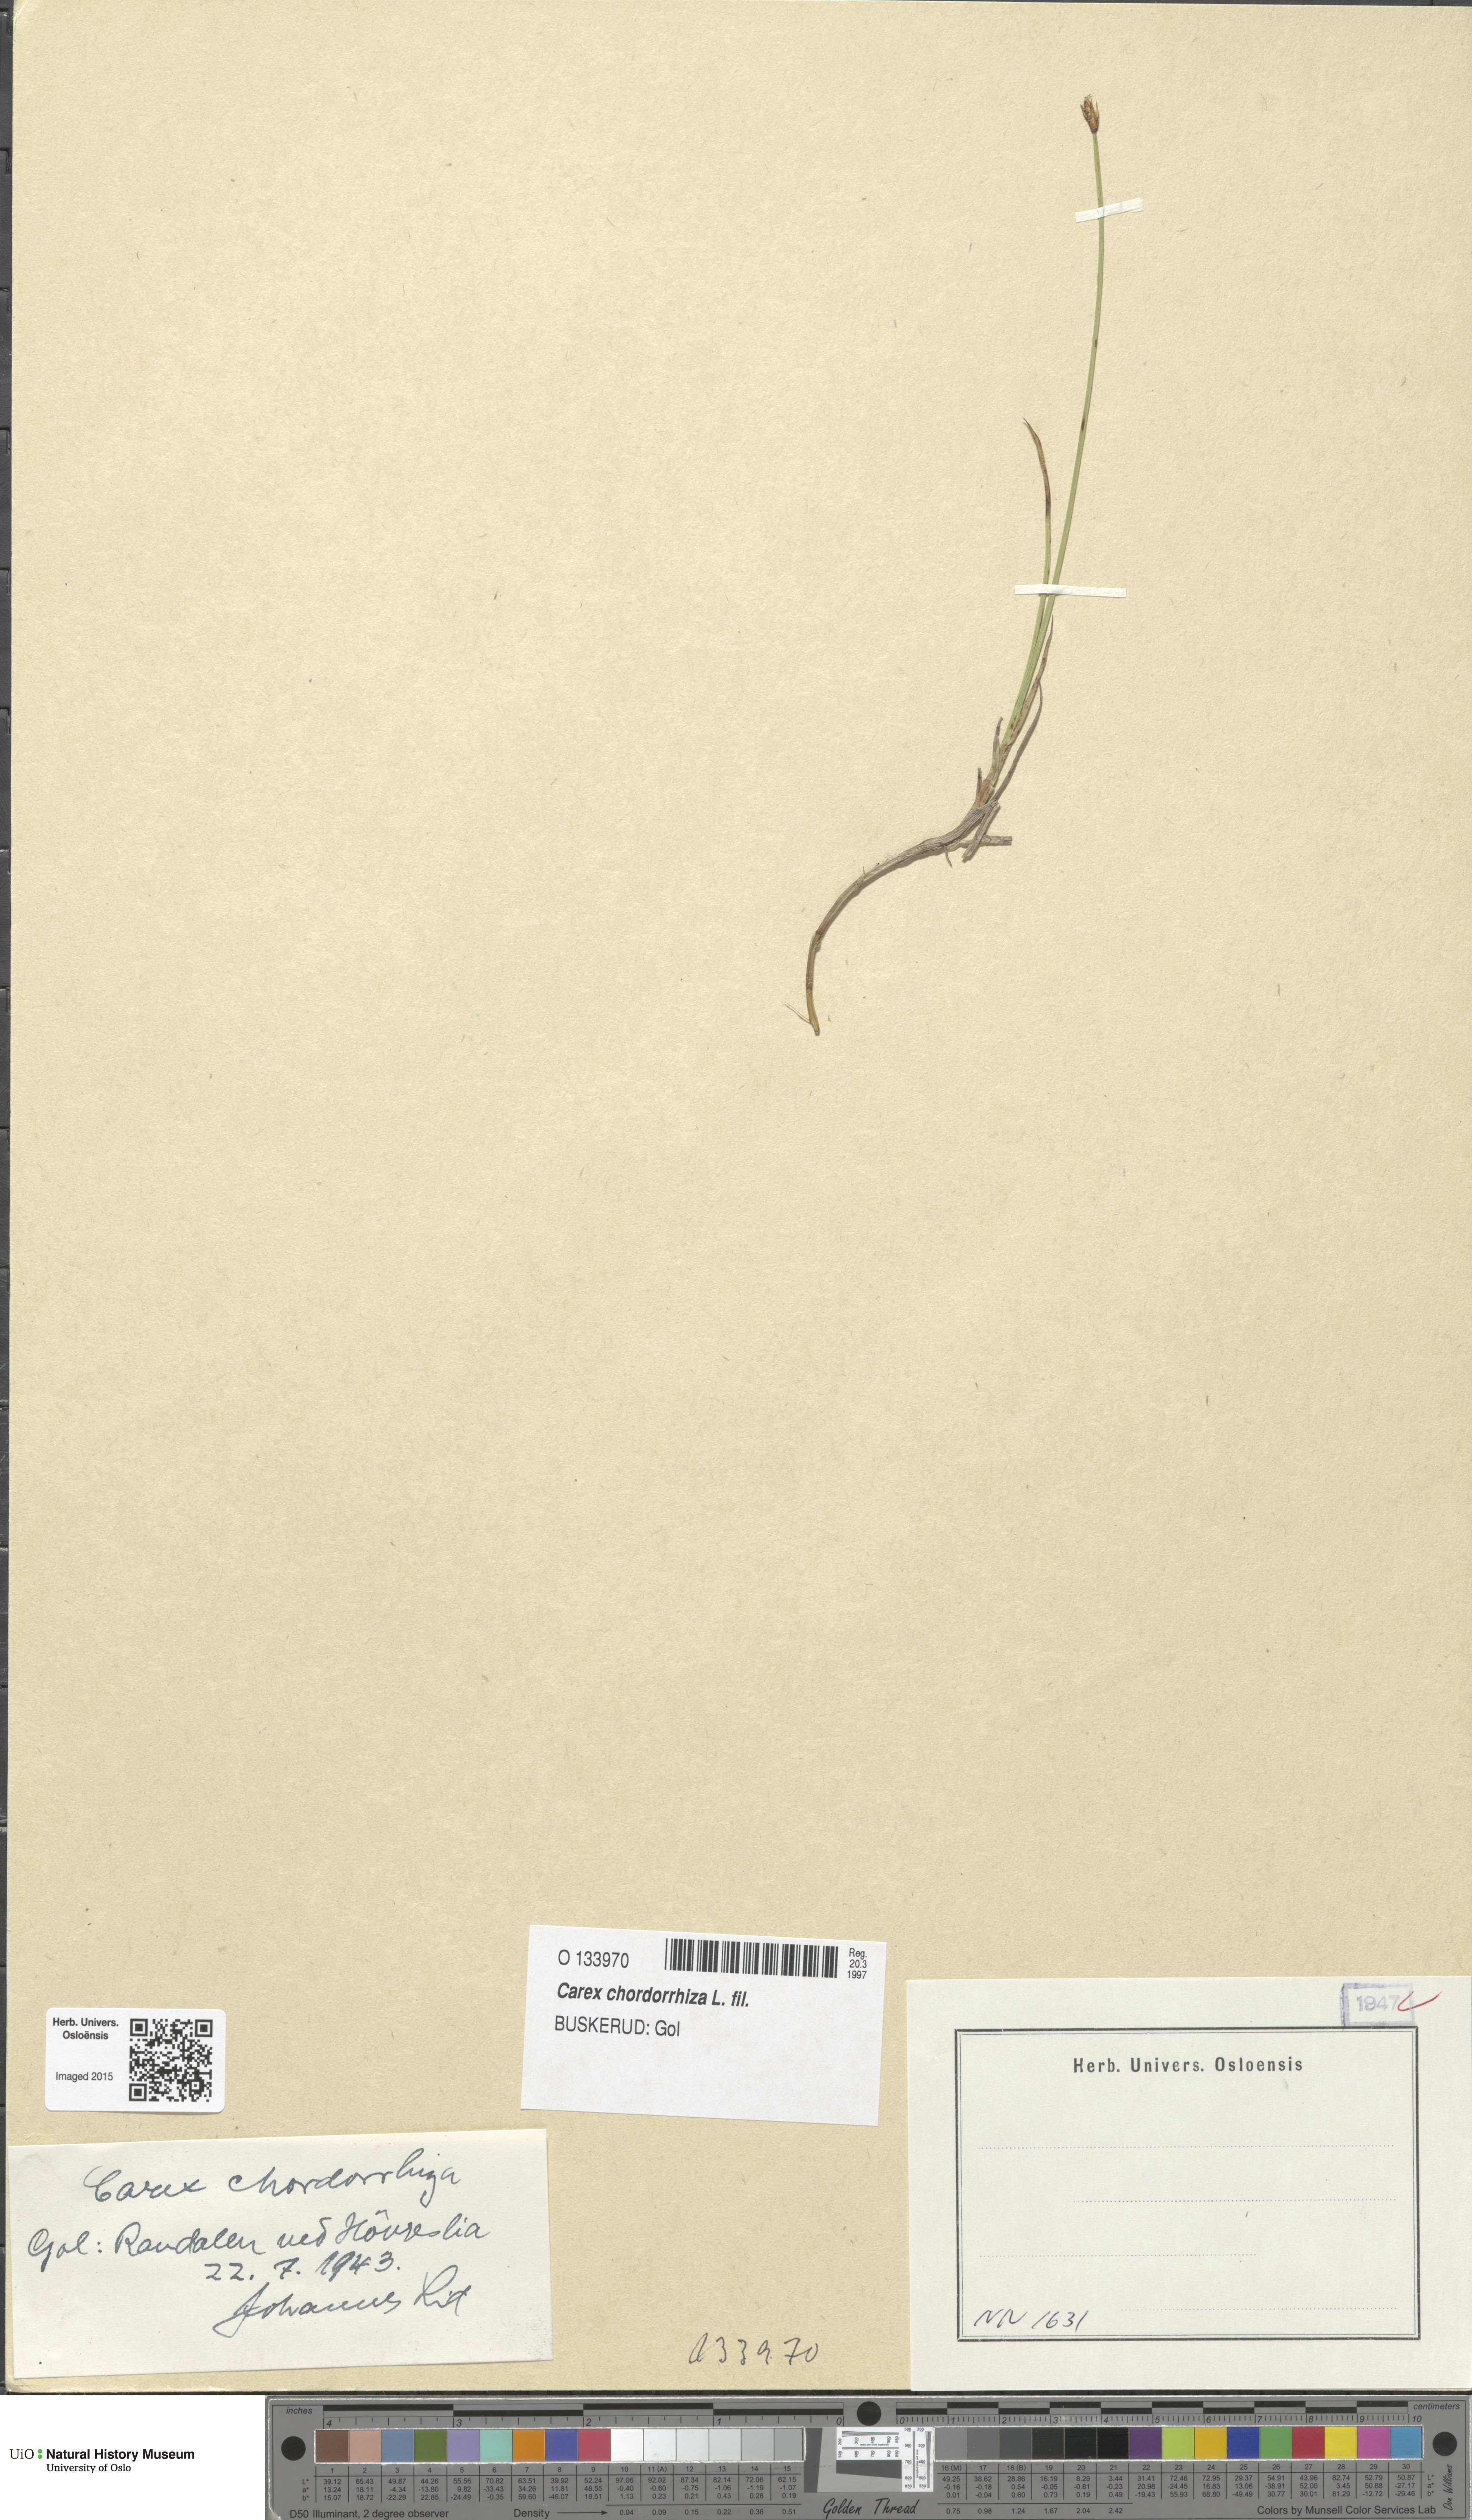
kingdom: Plantae
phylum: Tracheophyta
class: Liliopsida
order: Poales
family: Cyperaceae
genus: Carex
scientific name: Carex chordorrhiza
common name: String sedge
